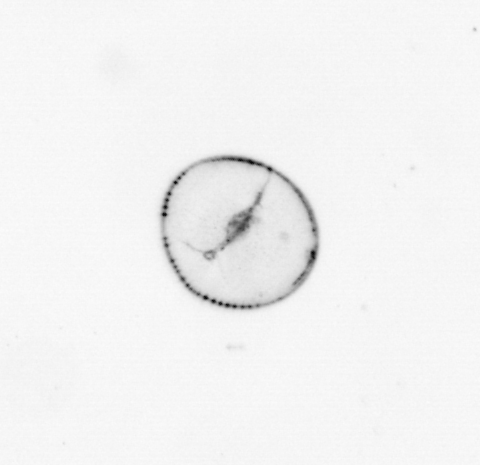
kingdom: Chromista
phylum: Myzozoa
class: Dinophyceae
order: Noctilucales
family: Noctilucaceae
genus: Noctiluca
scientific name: Noctiluca scintillans
